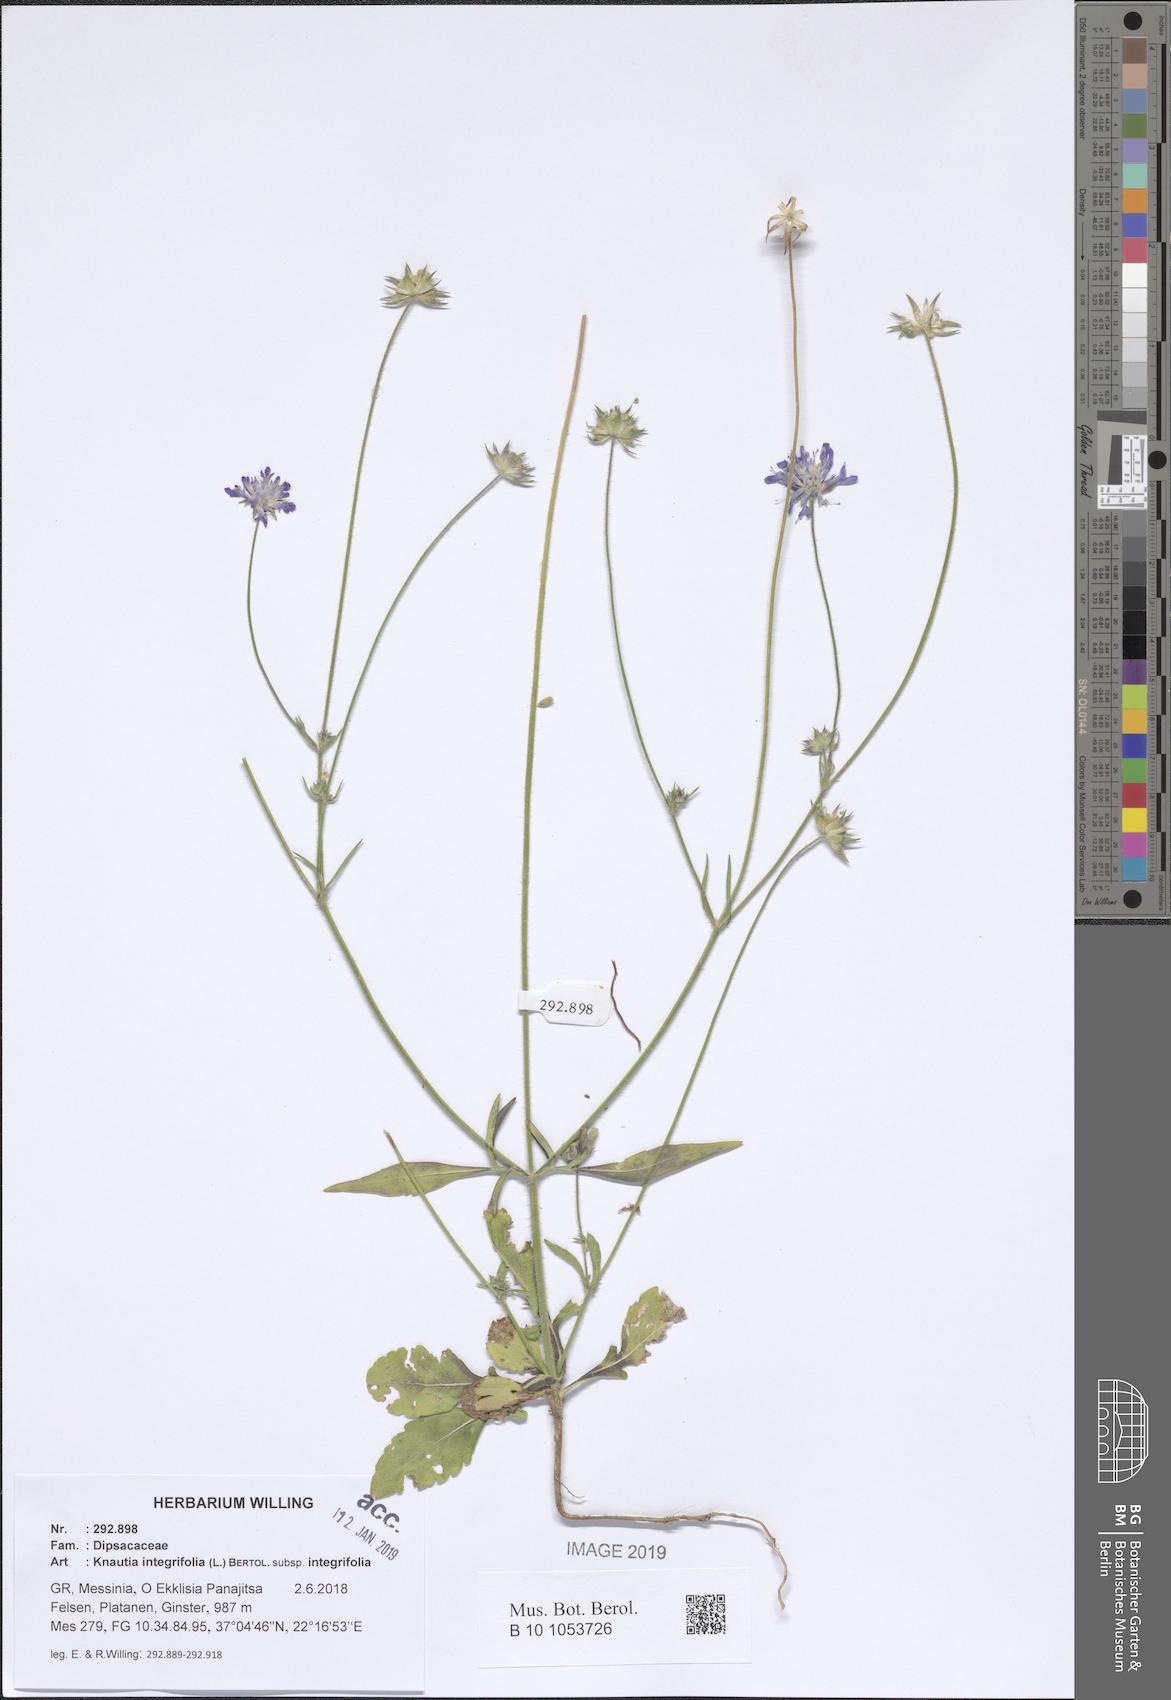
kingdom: Plantae
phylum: Tracheophyta
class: Magnoliopsida
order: Dipsacales
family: Caprifoliaceae
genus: Knautia
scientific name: Knautia integrifolia
